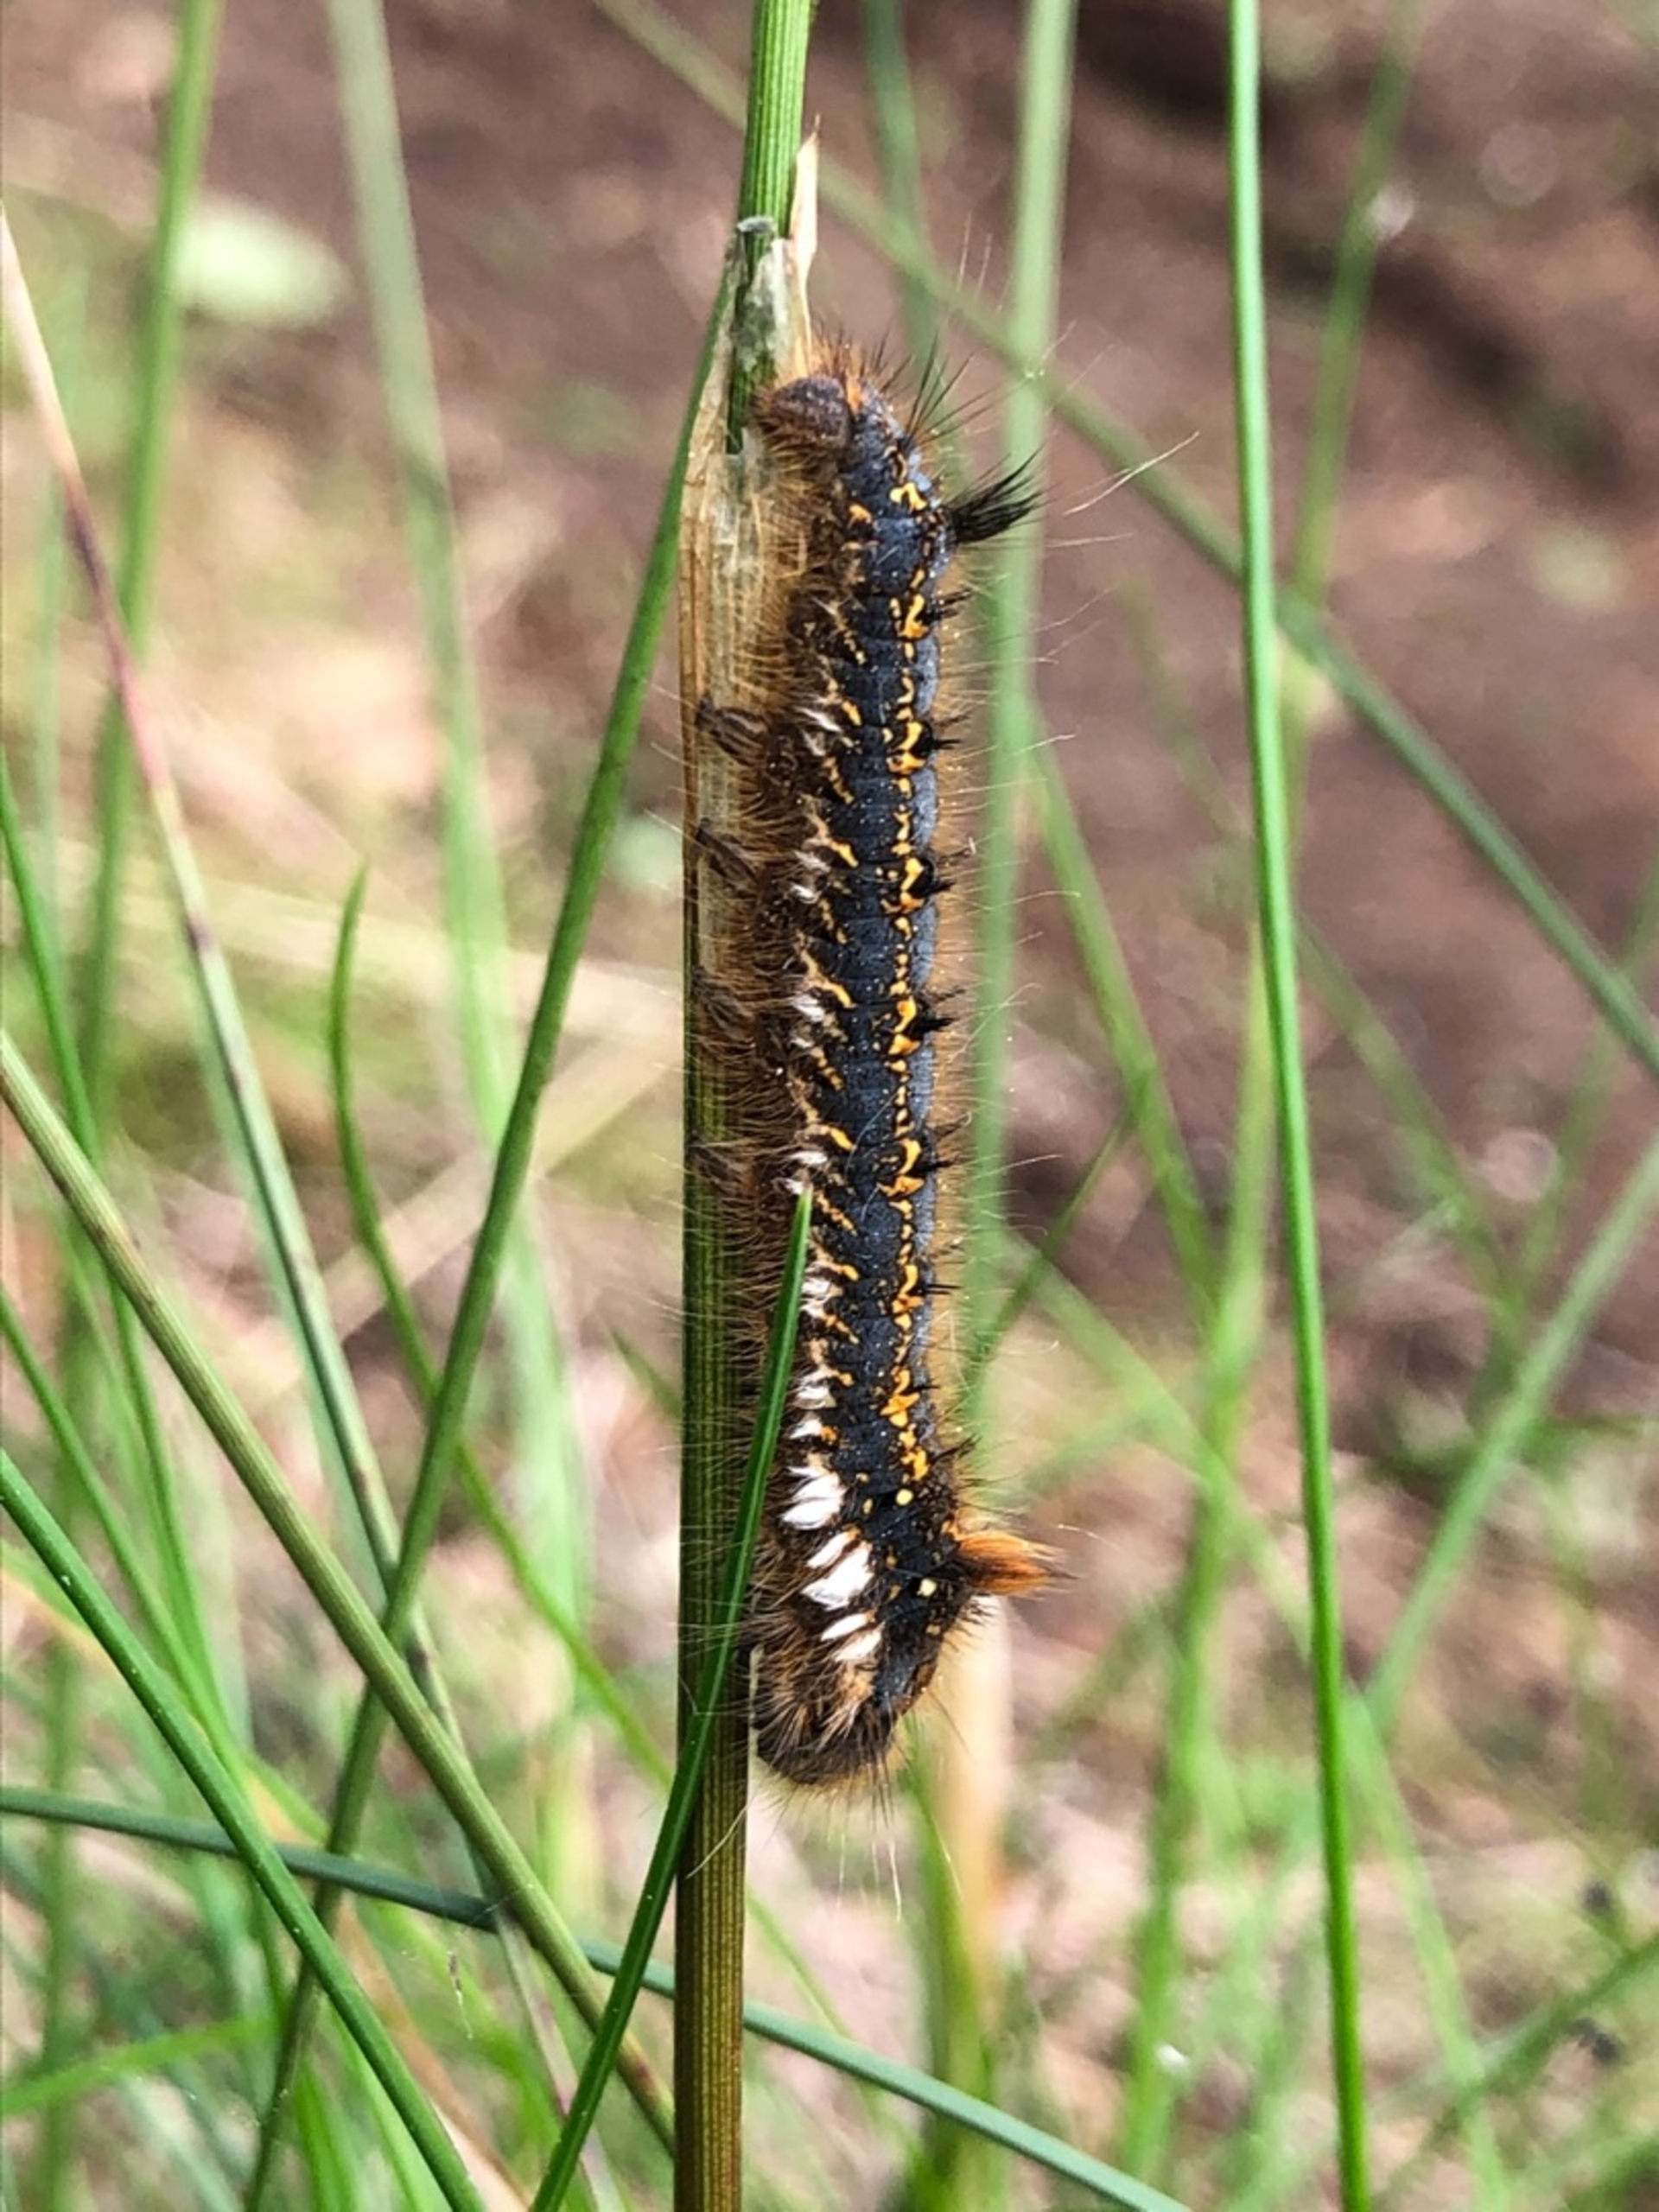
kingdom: Animalia
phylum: Arthropoda
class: Insecta
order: Lepidoptera
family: Lasiocampidae
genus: Euthrix
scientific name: Euthrix potatoria
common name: Græsspinder
